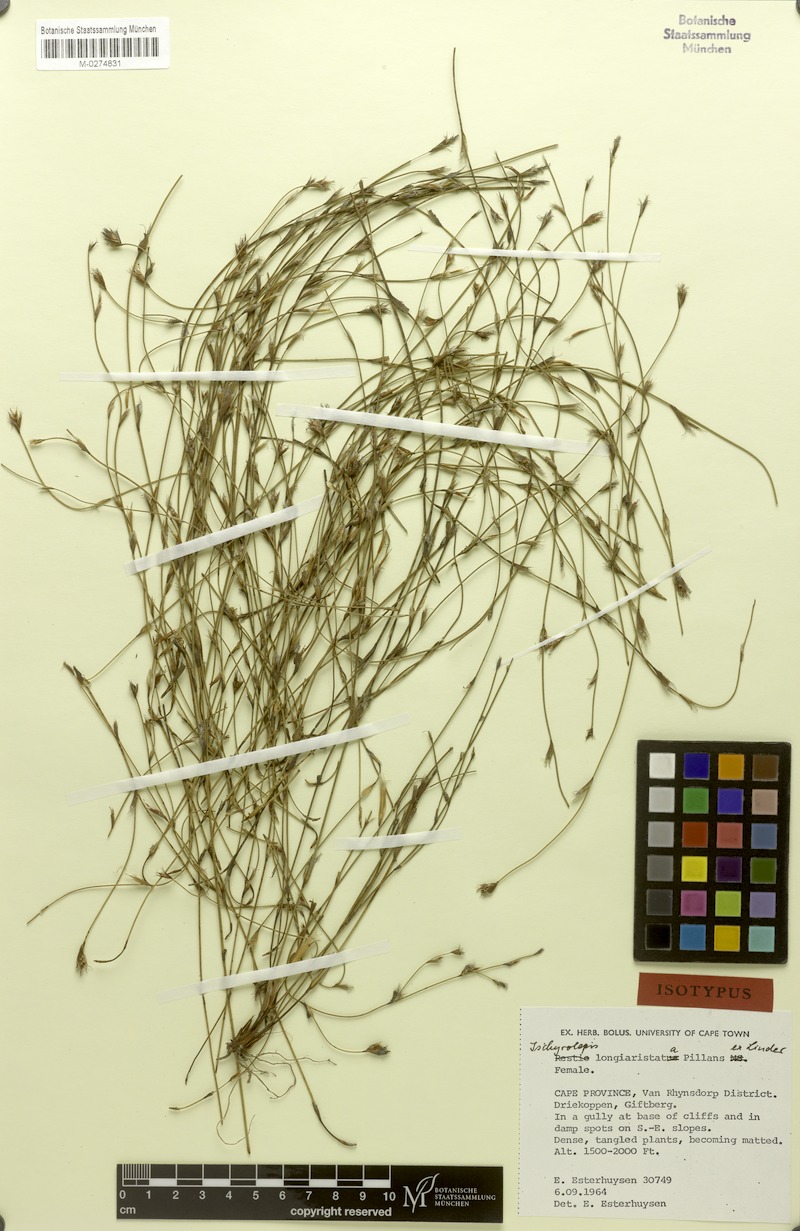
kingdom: Plantae
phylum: Tracheophyta
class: Liliopsida
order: Poales
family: Restionaceae
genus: Restio
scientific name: Restio longiaristatus
